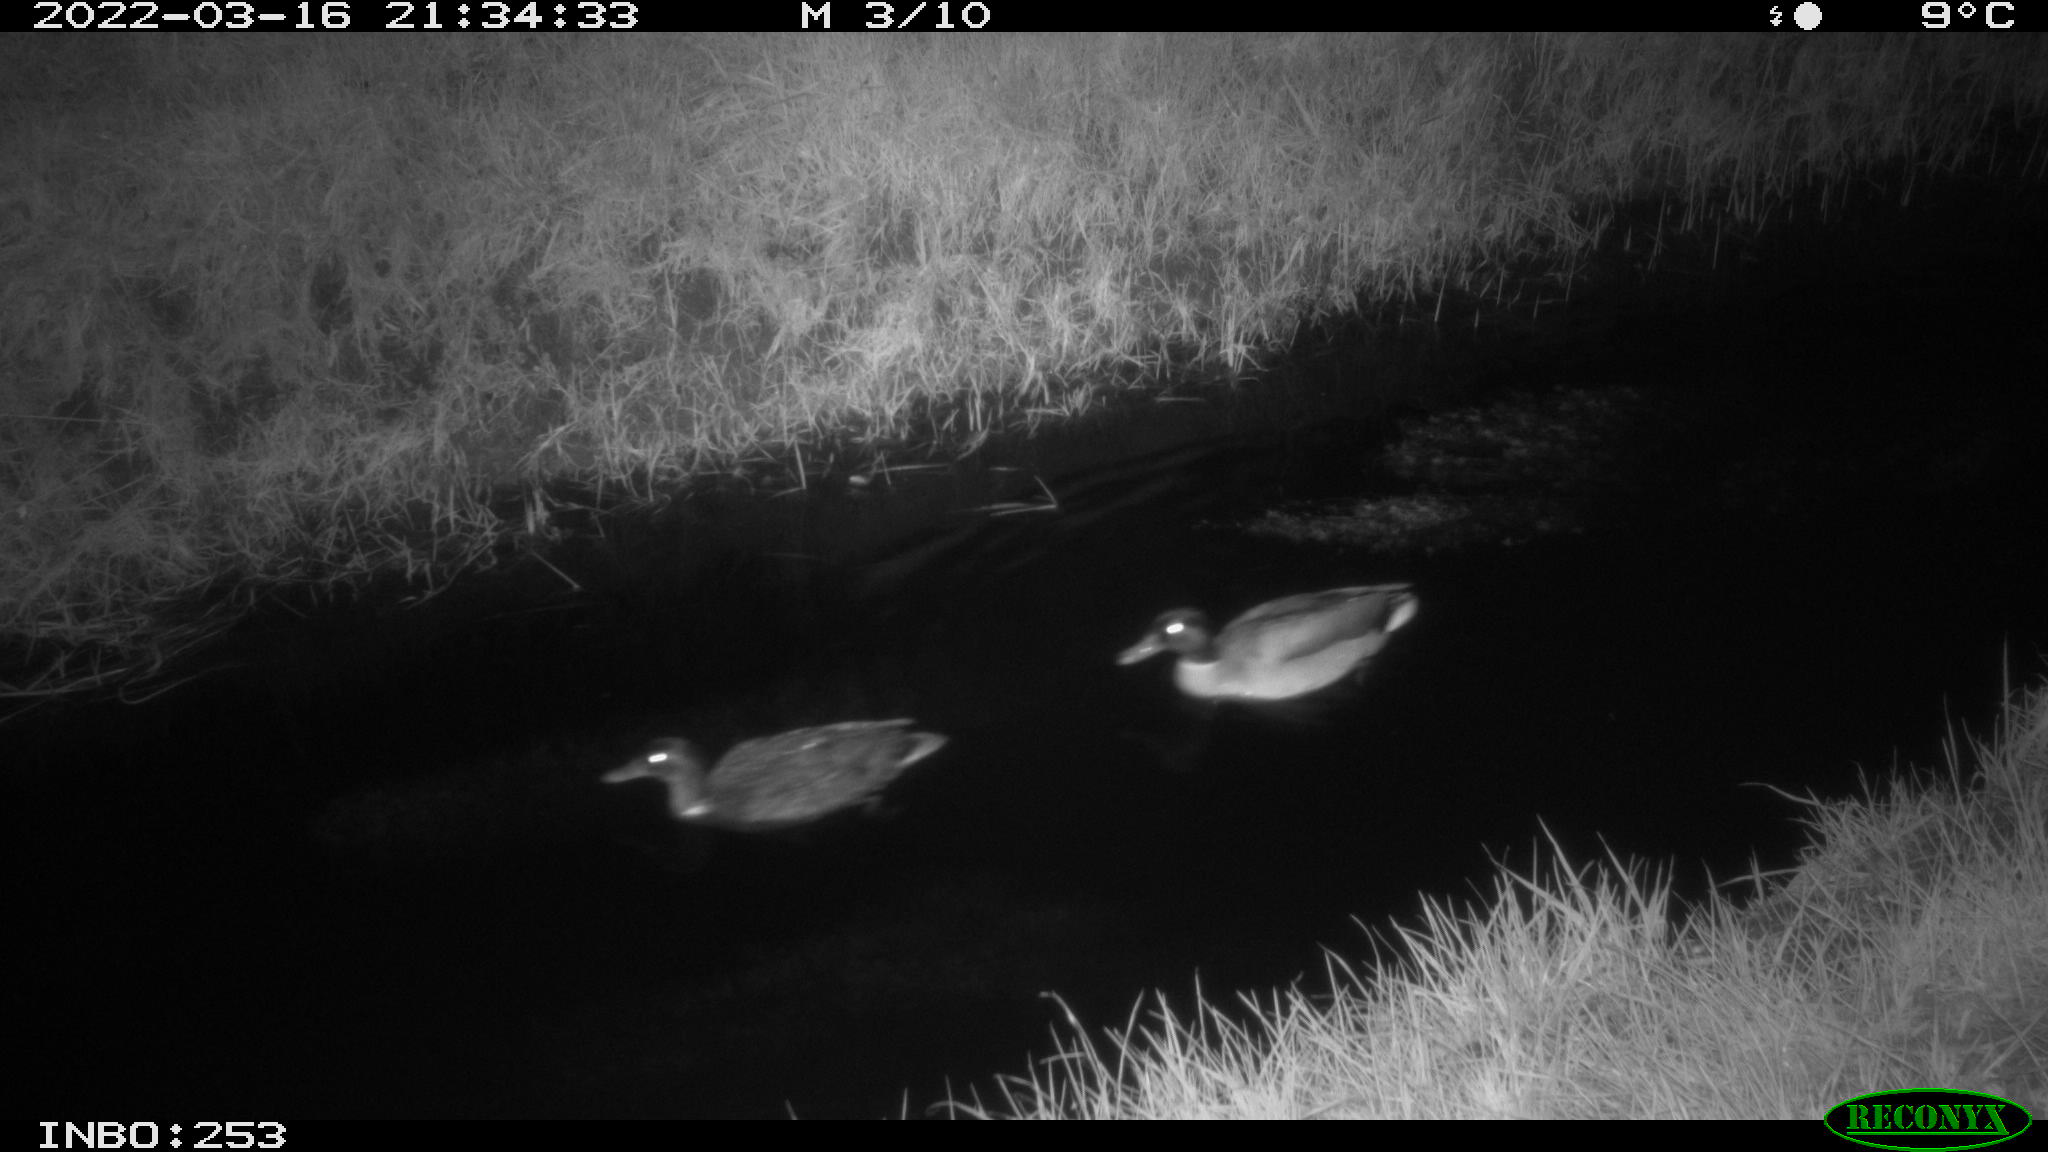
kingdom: Animalia
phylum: Chordata
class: Aves
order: Anseriformes
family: Anatidae
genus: Anas
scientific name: Anas platyrhynchos
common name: Mallard
